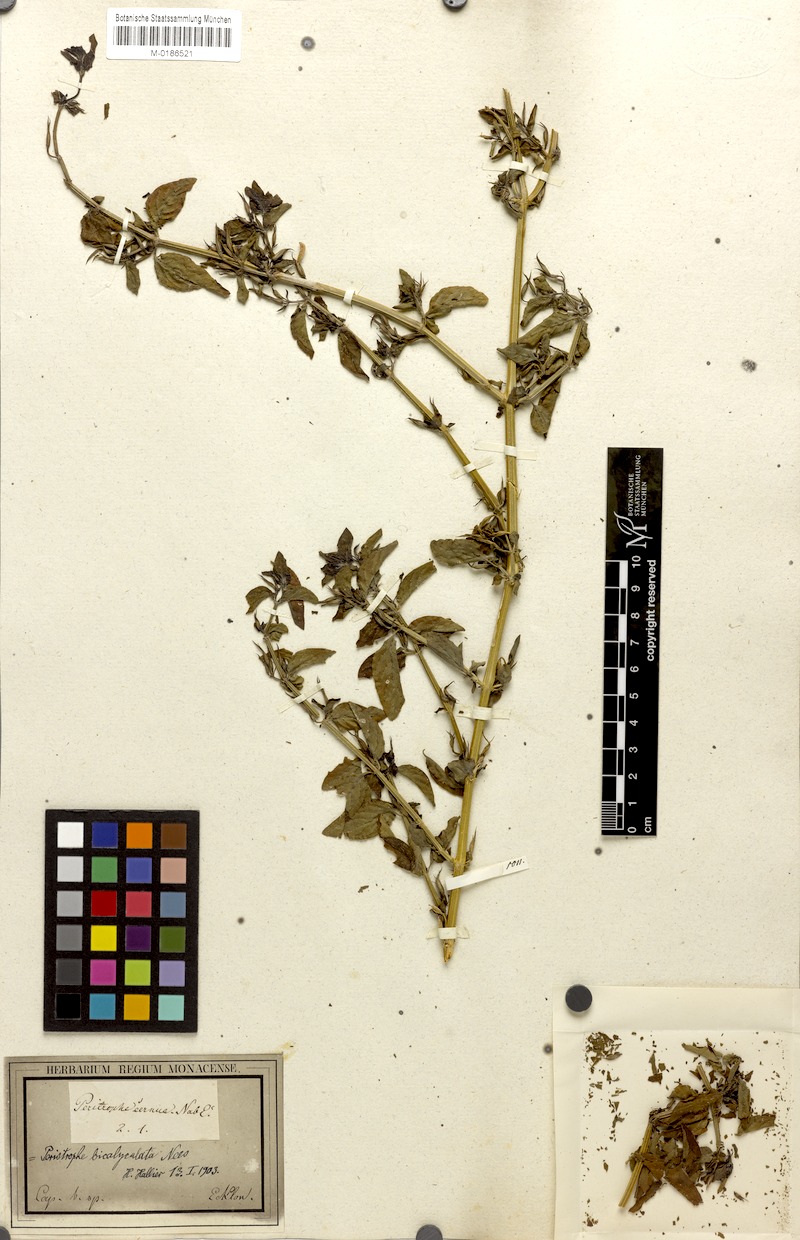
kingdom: Plantae
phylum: Tracheophyta
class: Magnoliopsida
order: Lamiales
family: Acanthaceae
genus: Dicliptera
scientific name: Dicliptera paniculata
